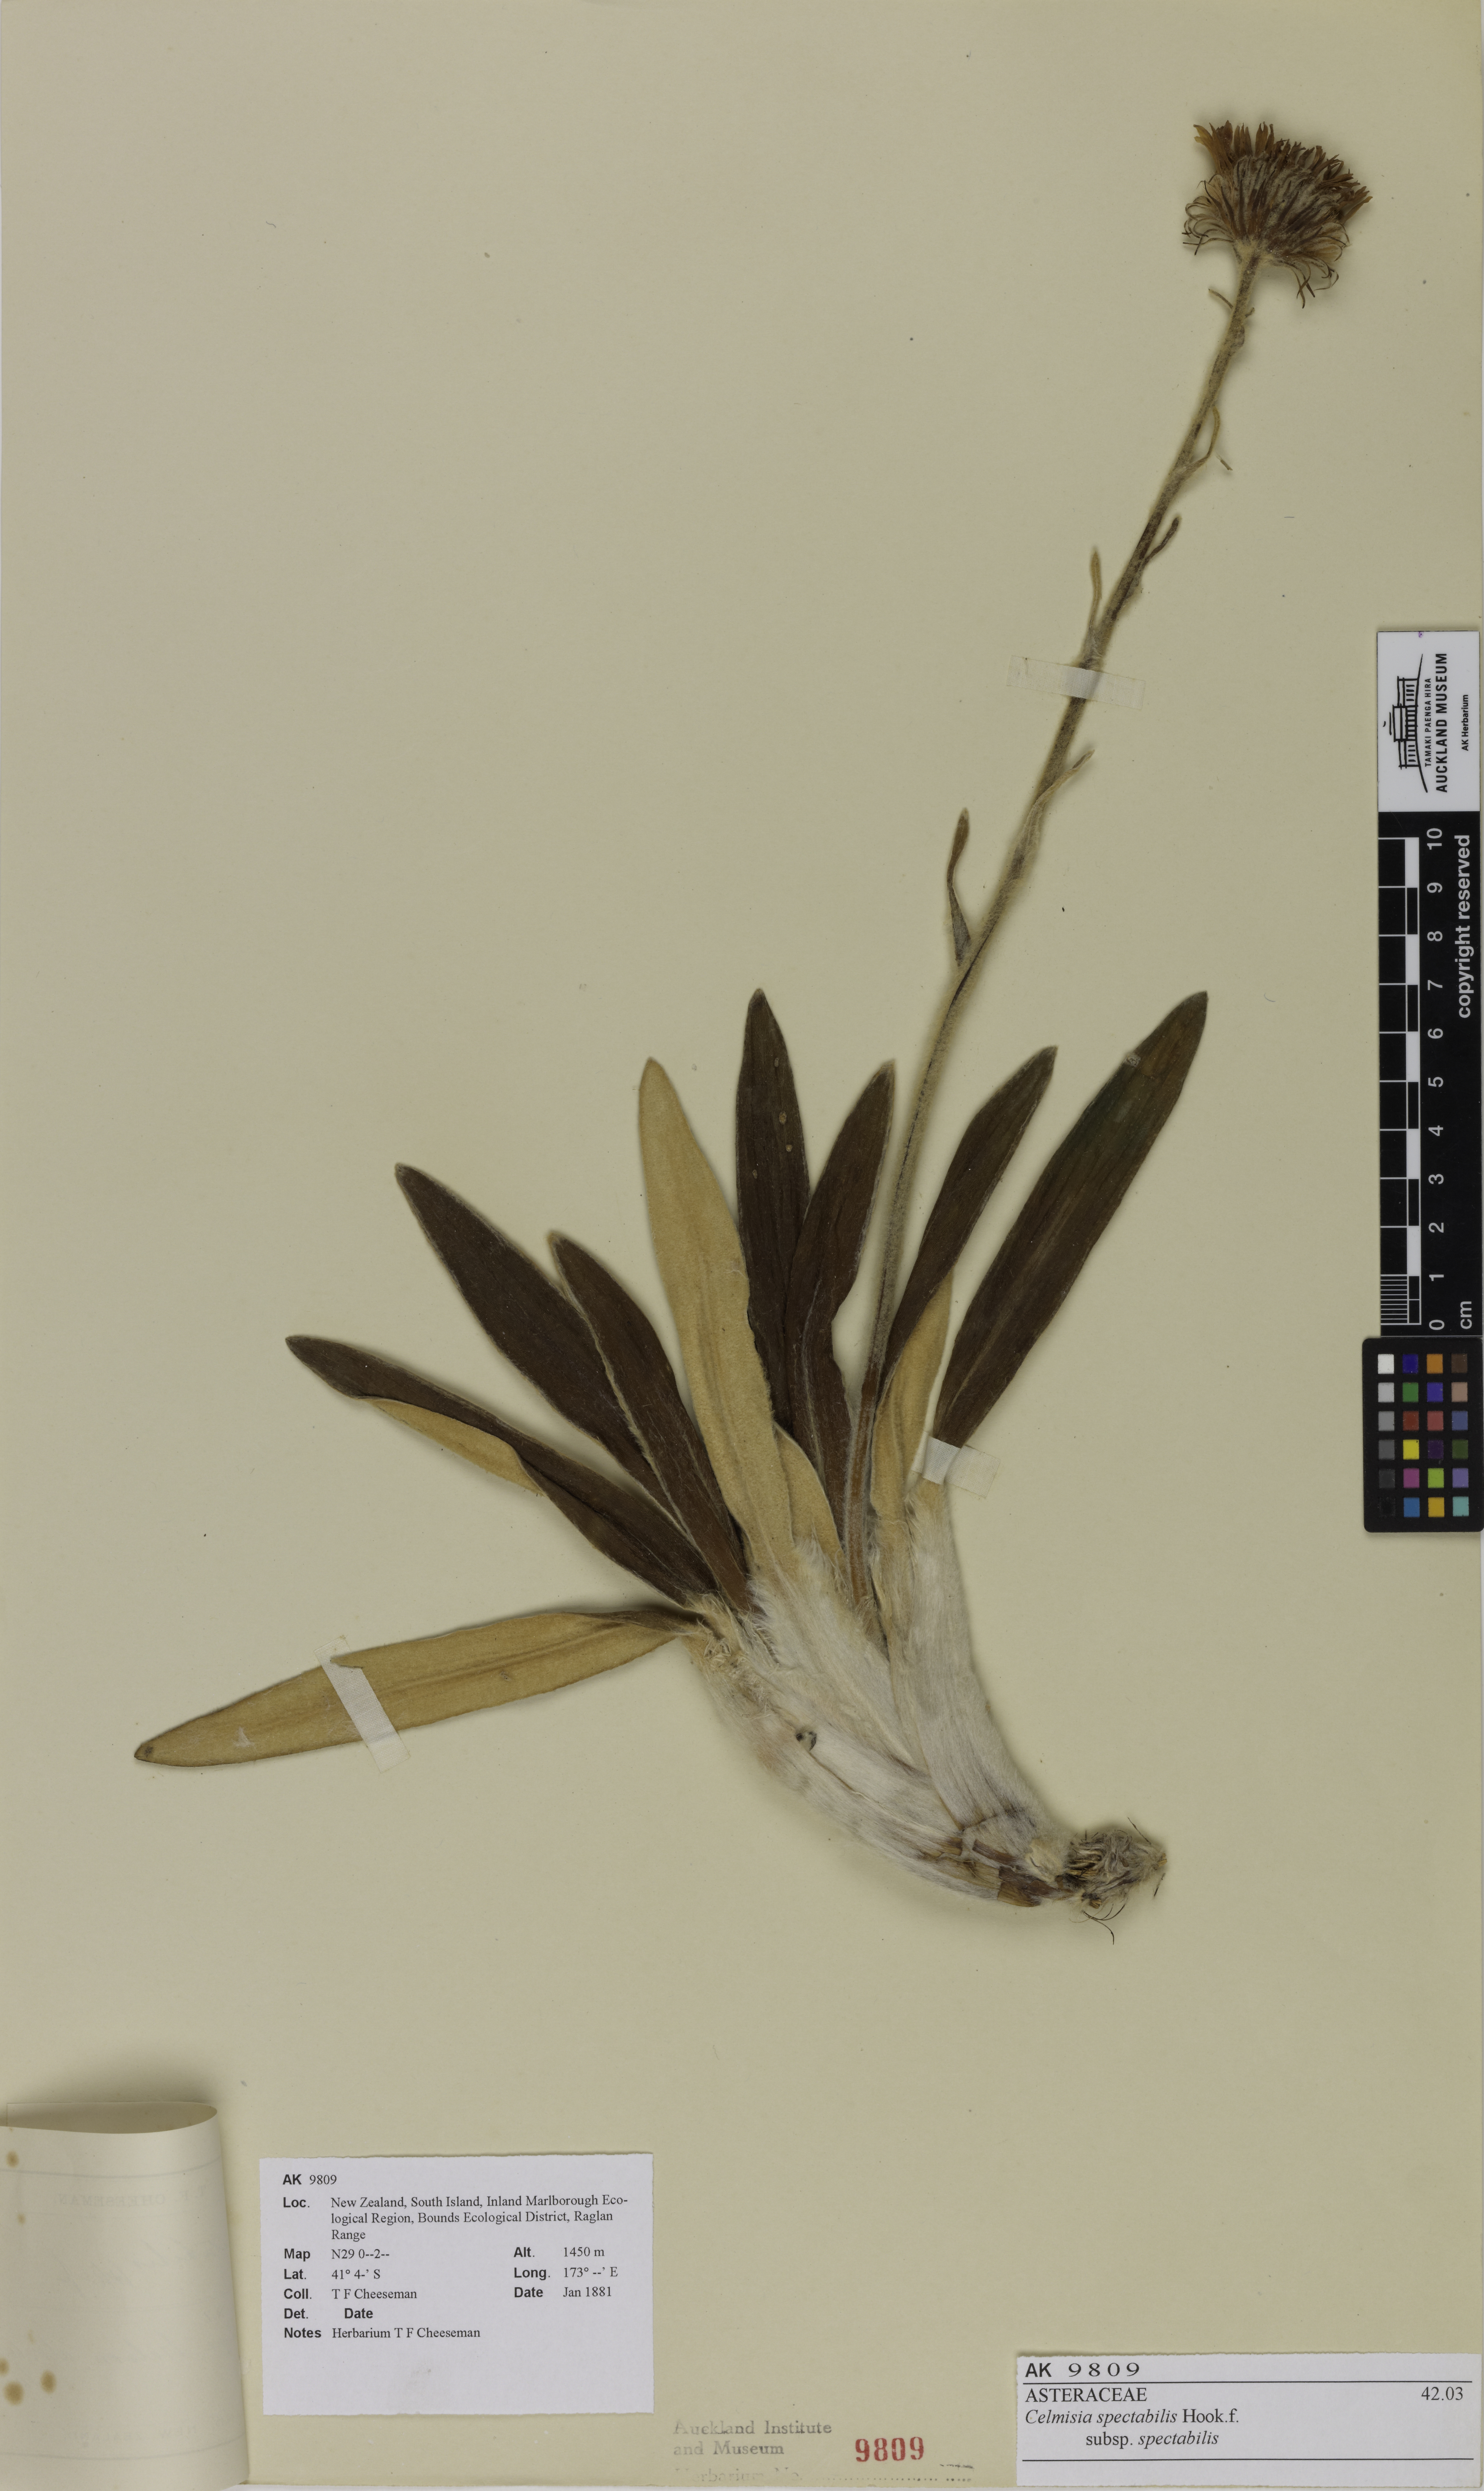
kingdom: Plantae
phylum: Tracheophyta
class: Magnoliopsida
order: Asterales
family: Asteraceae
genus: Celmisia
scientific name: Celmisia spectabilis
